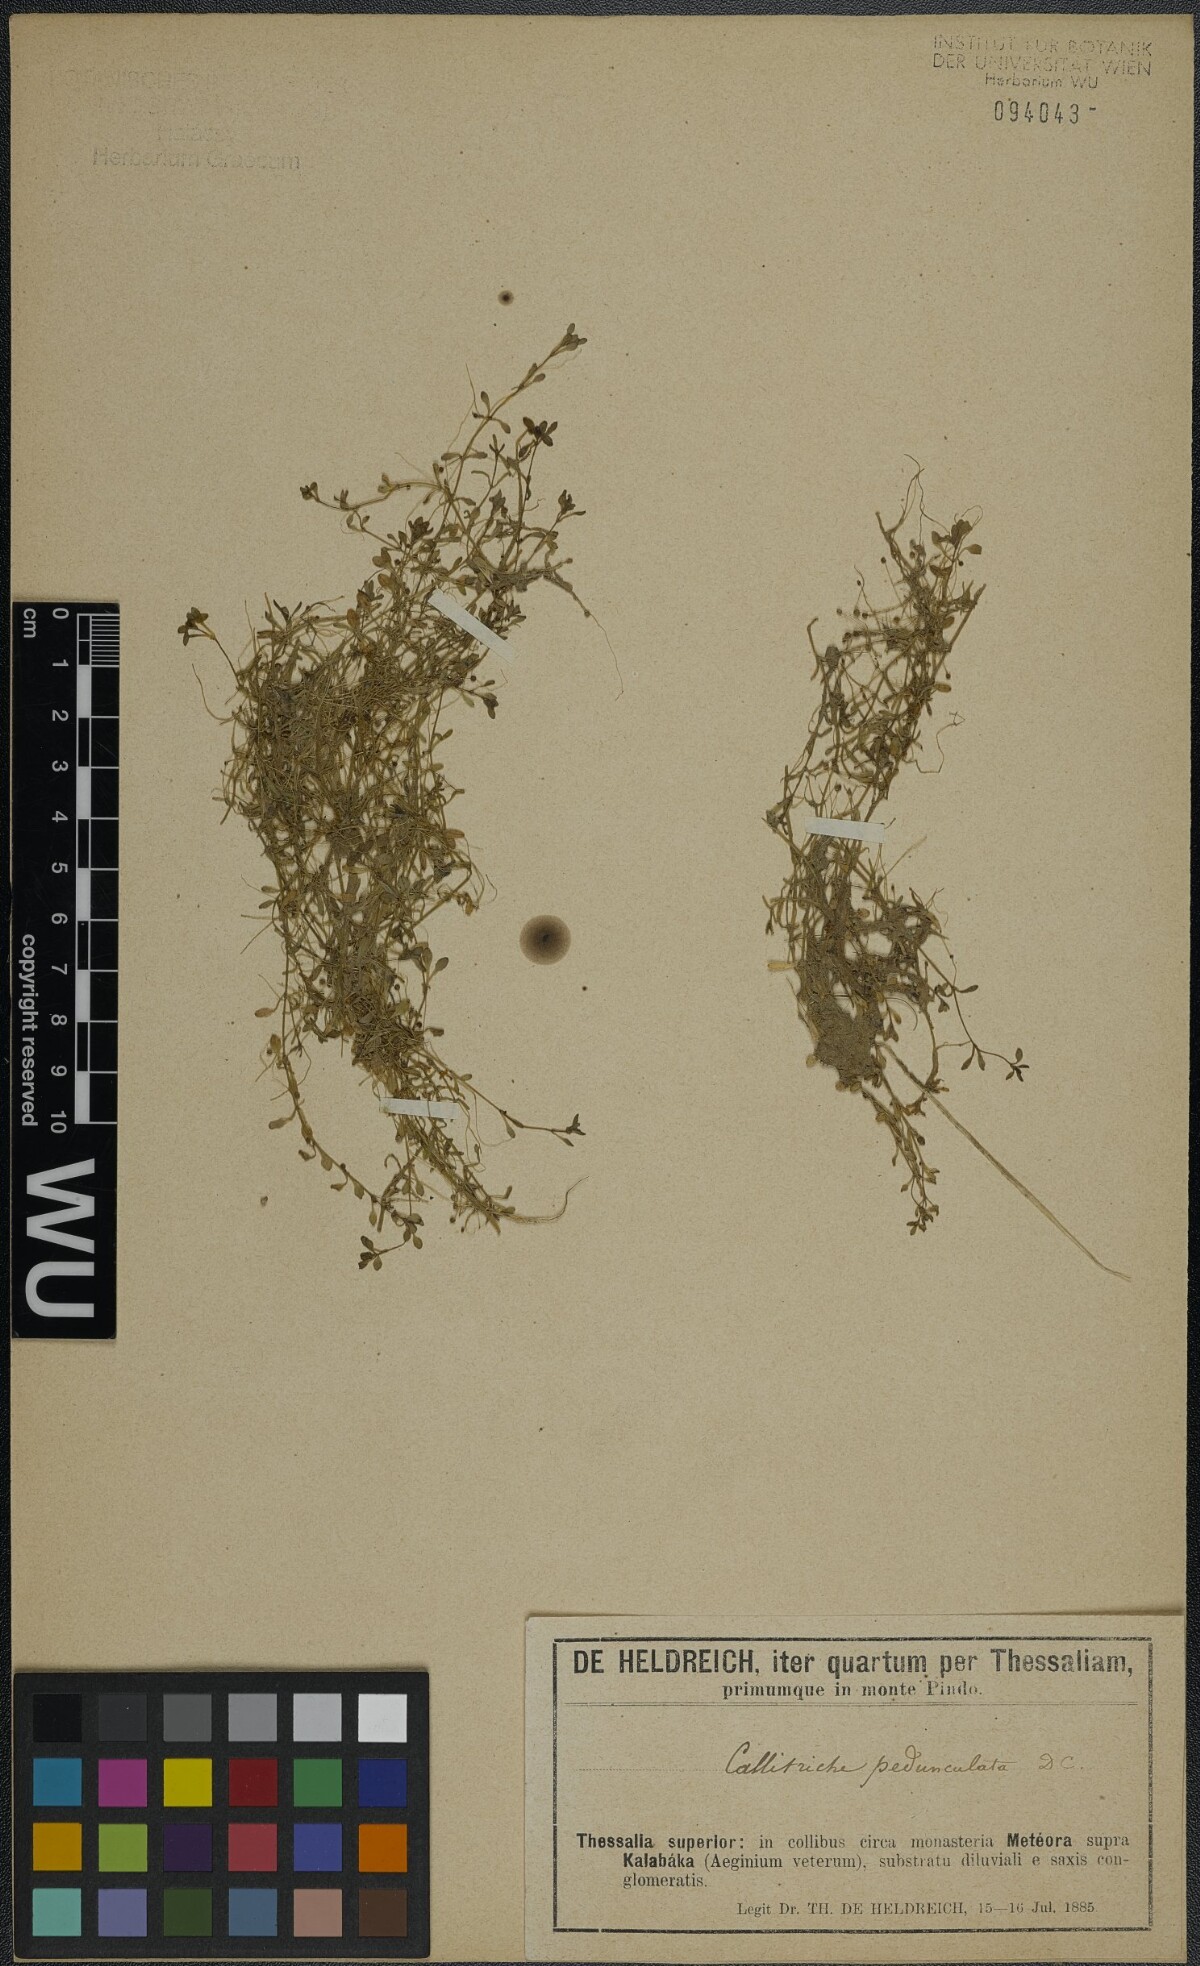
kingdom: Plantae
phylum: Tracheophyta
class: Magnoliopsida
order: Lamiales
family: Plantaginaceae
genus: Callitriche
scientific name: Callitriche brutia
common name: Pedunculate water-starwort
